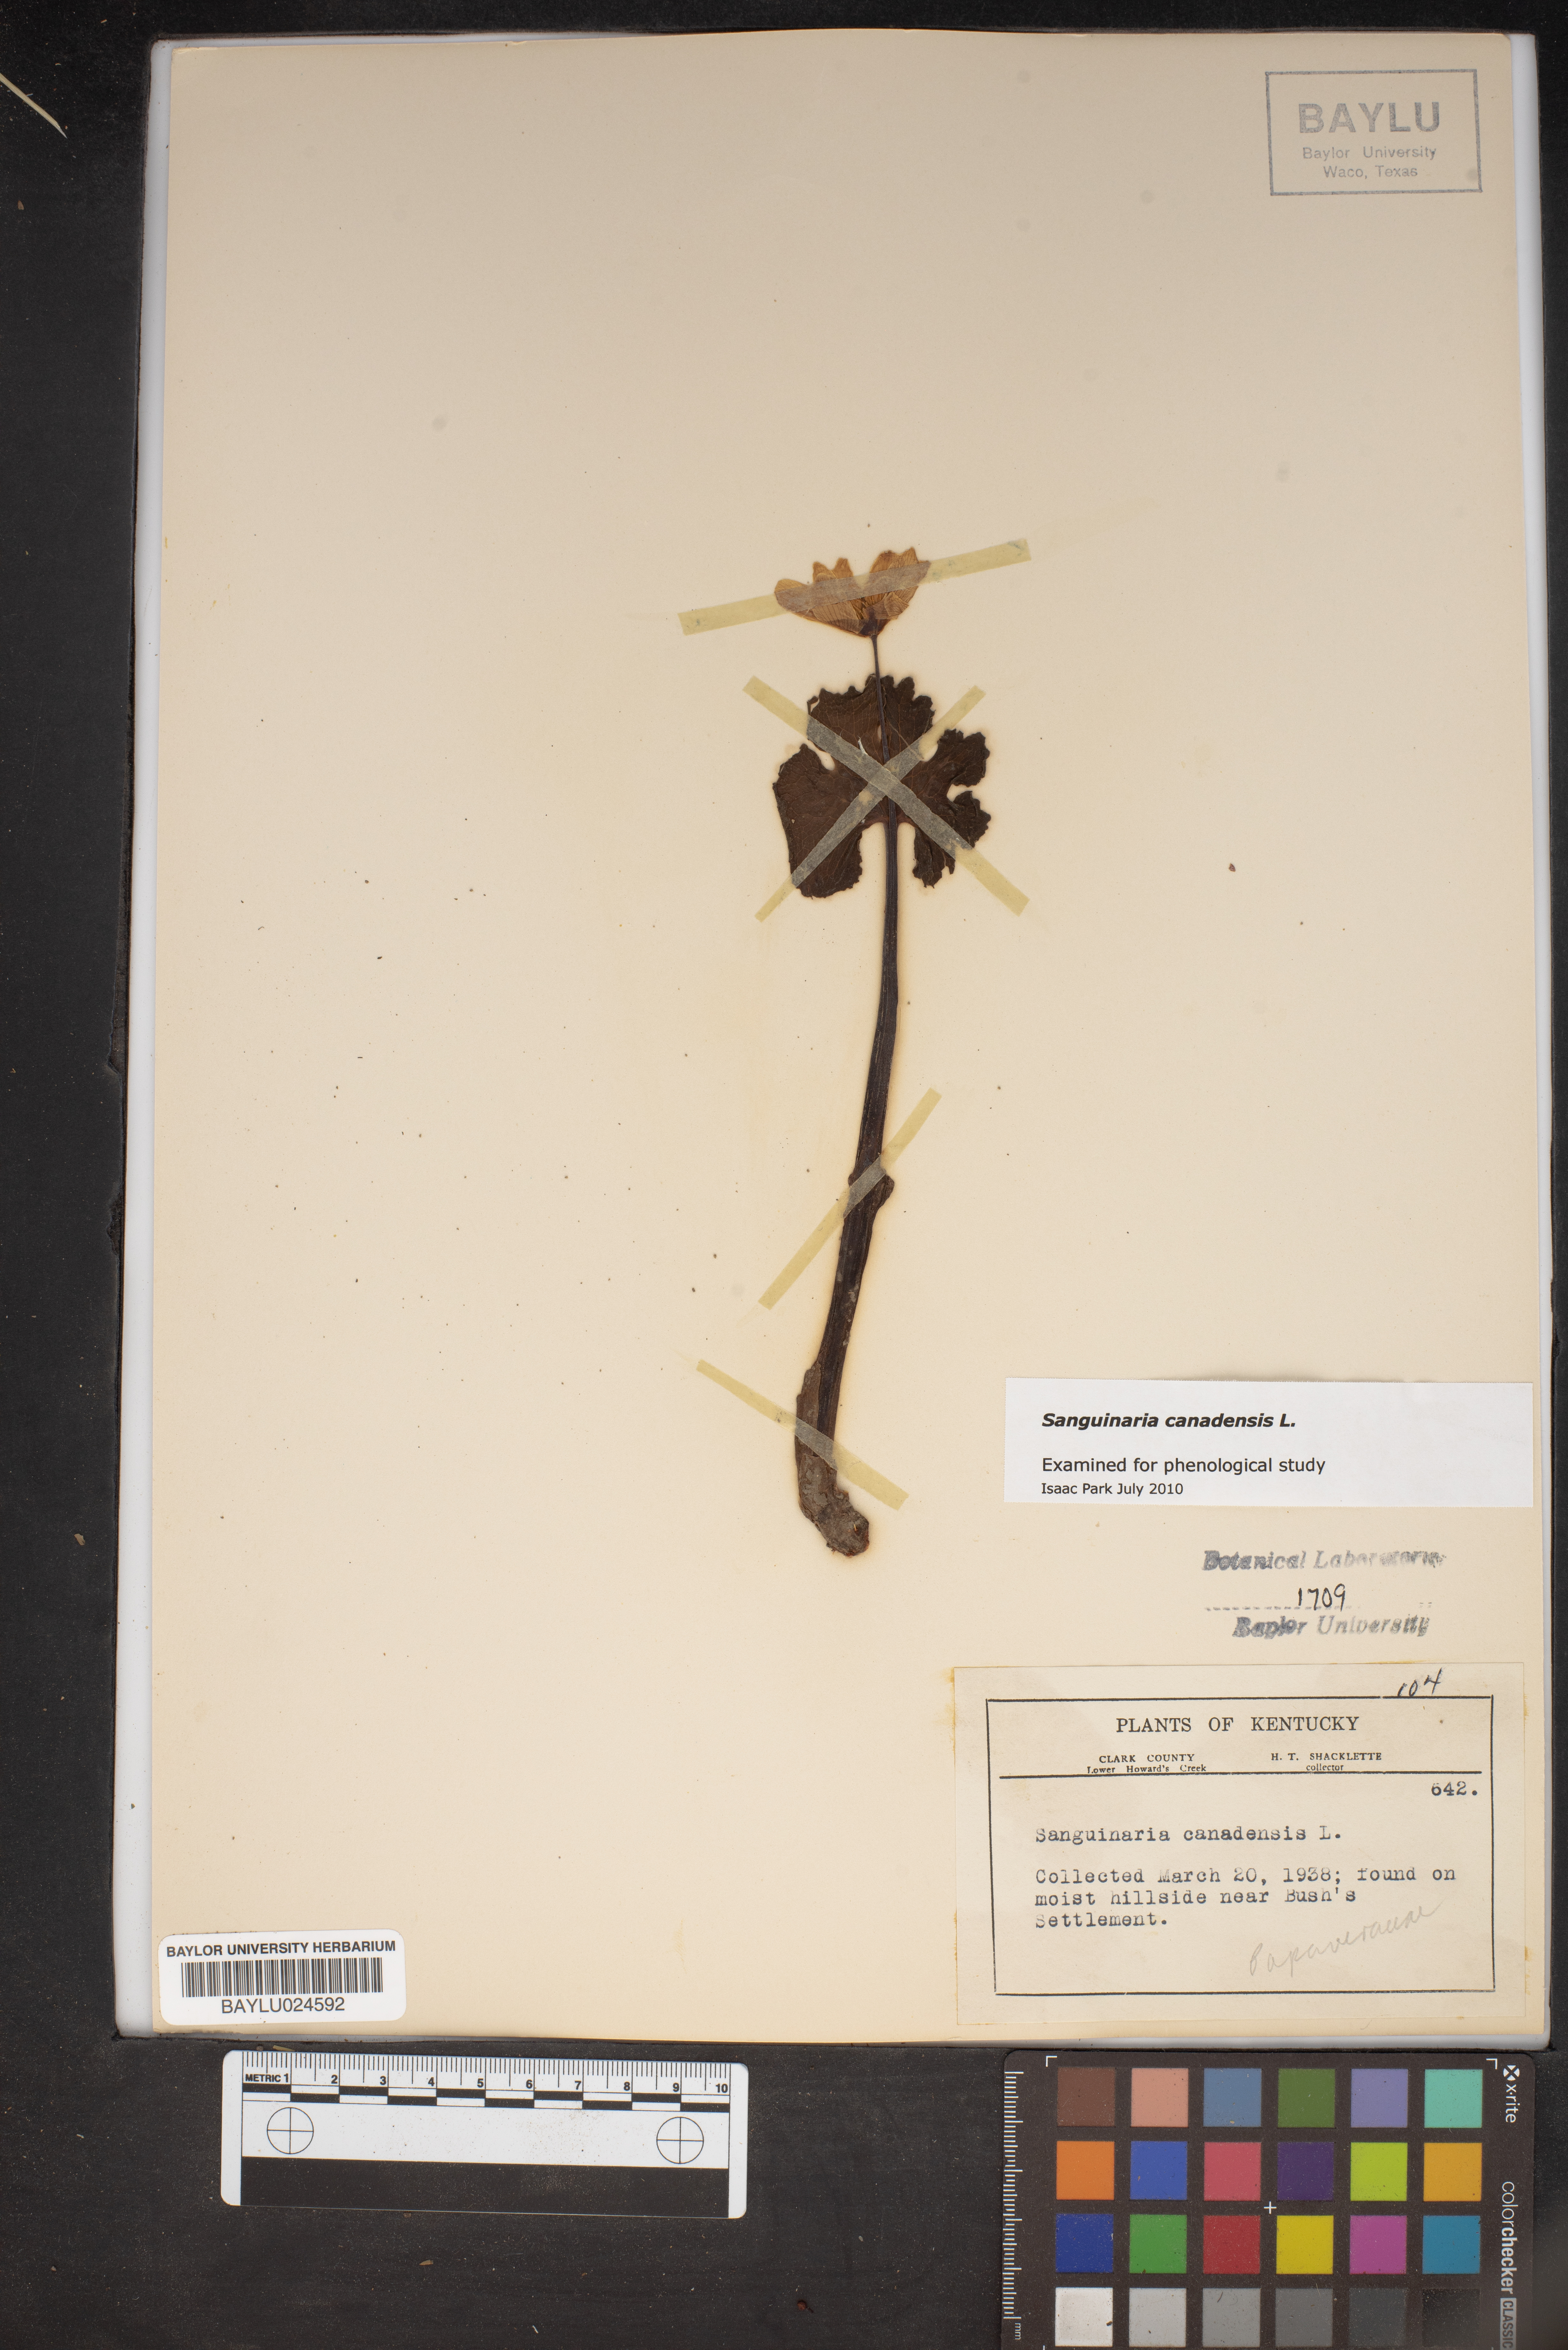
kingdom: Plantae
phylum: Tracheophyta
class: Magnoliopsida
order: Ranunculales
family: Papaveraceae
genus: Sanguinaria
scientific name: Sanguinaria canadensis
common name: Bloodroot
